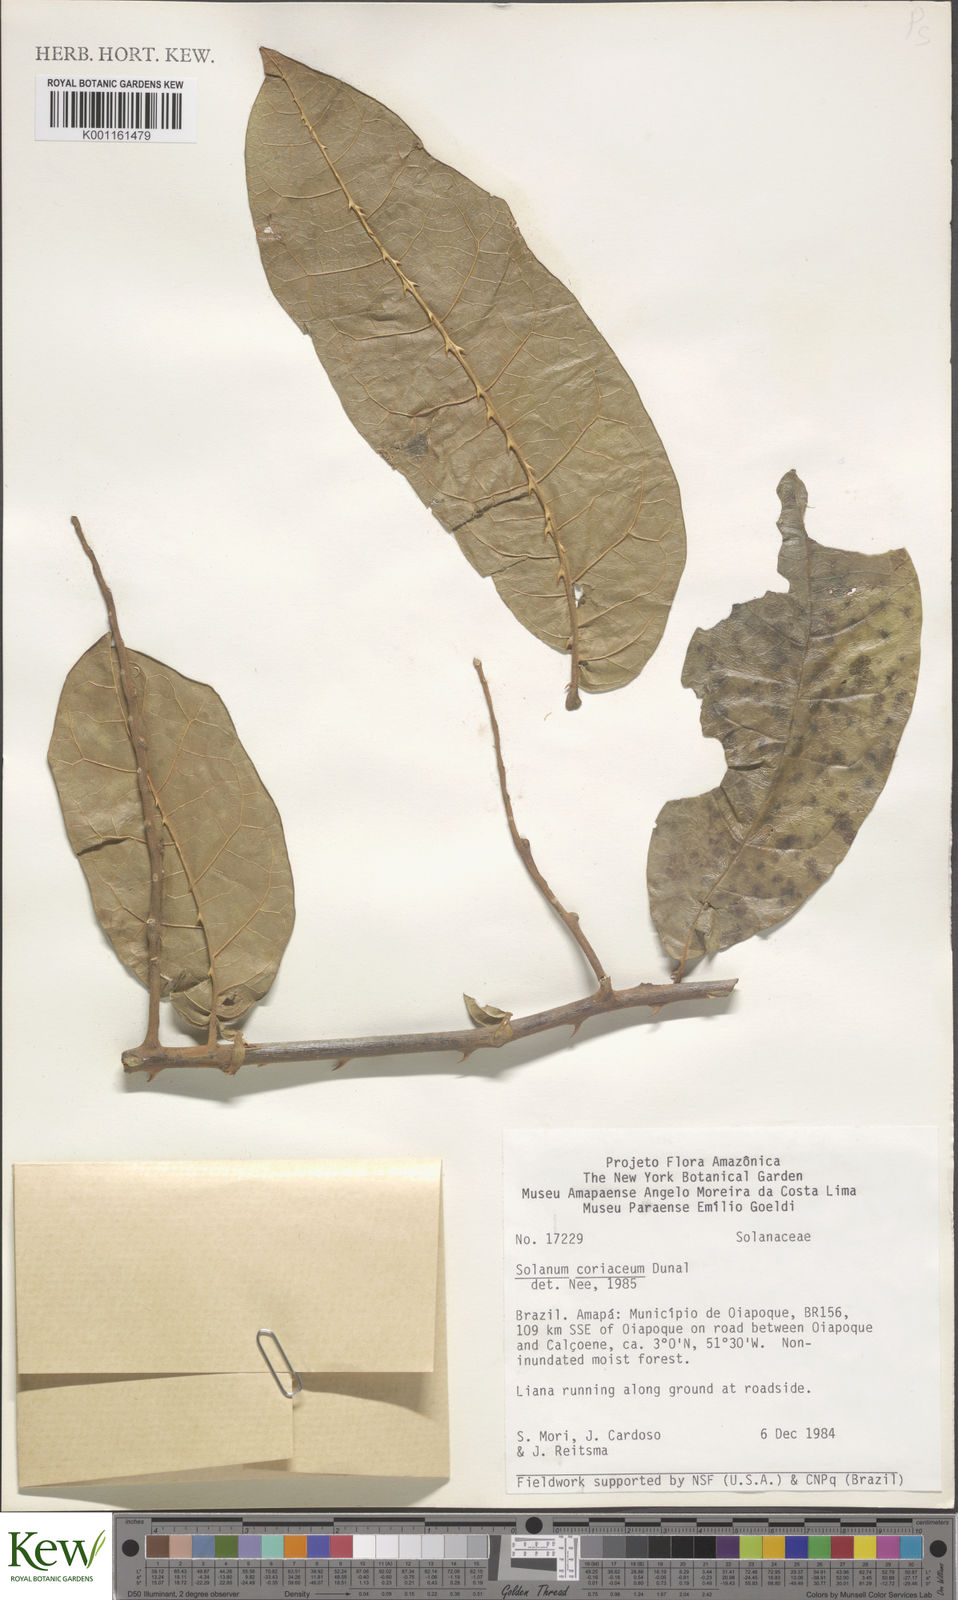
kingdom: Plantae
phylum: Tracheophyta
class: Magnoliopsida
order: Solanales
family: Solanaceae
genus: Solanum
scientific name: Solanum coriaceum
